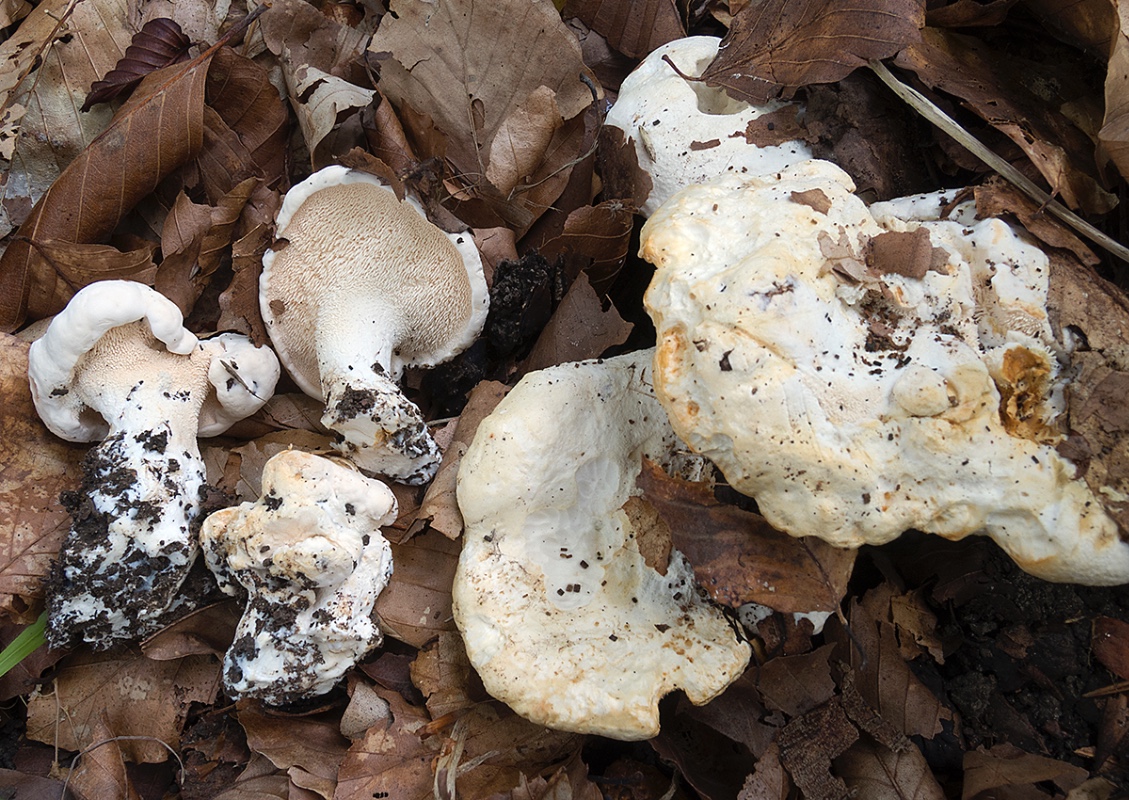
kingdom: Fungi
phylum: Basidiomycota
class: Agaricomycetes
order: Cantharellales
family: Hydnaceae
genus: Hydnum
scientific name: Hydnum repandum
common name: hvid pigsvamp
